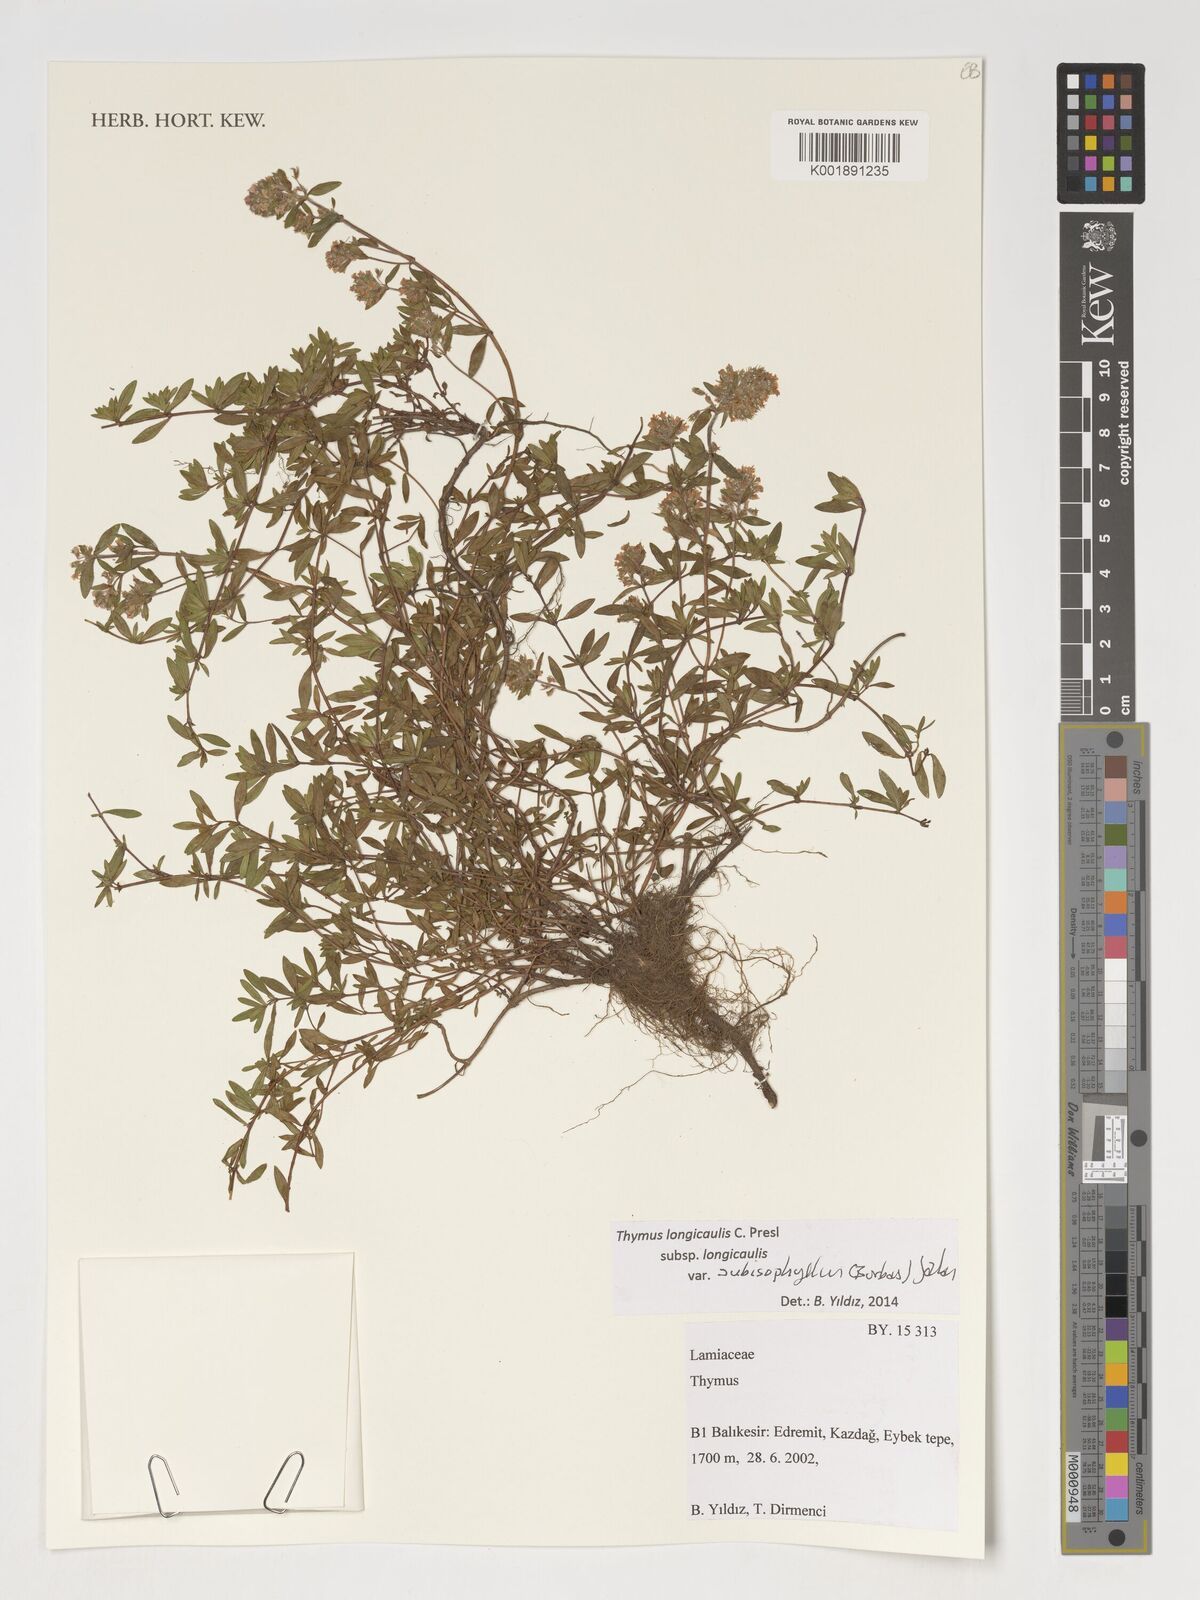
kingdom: Plantae
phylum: Tracheophyta
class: Magnoliopsida
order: Lamiales
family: Lamiaceae
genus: Thymus
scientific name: Thymus
